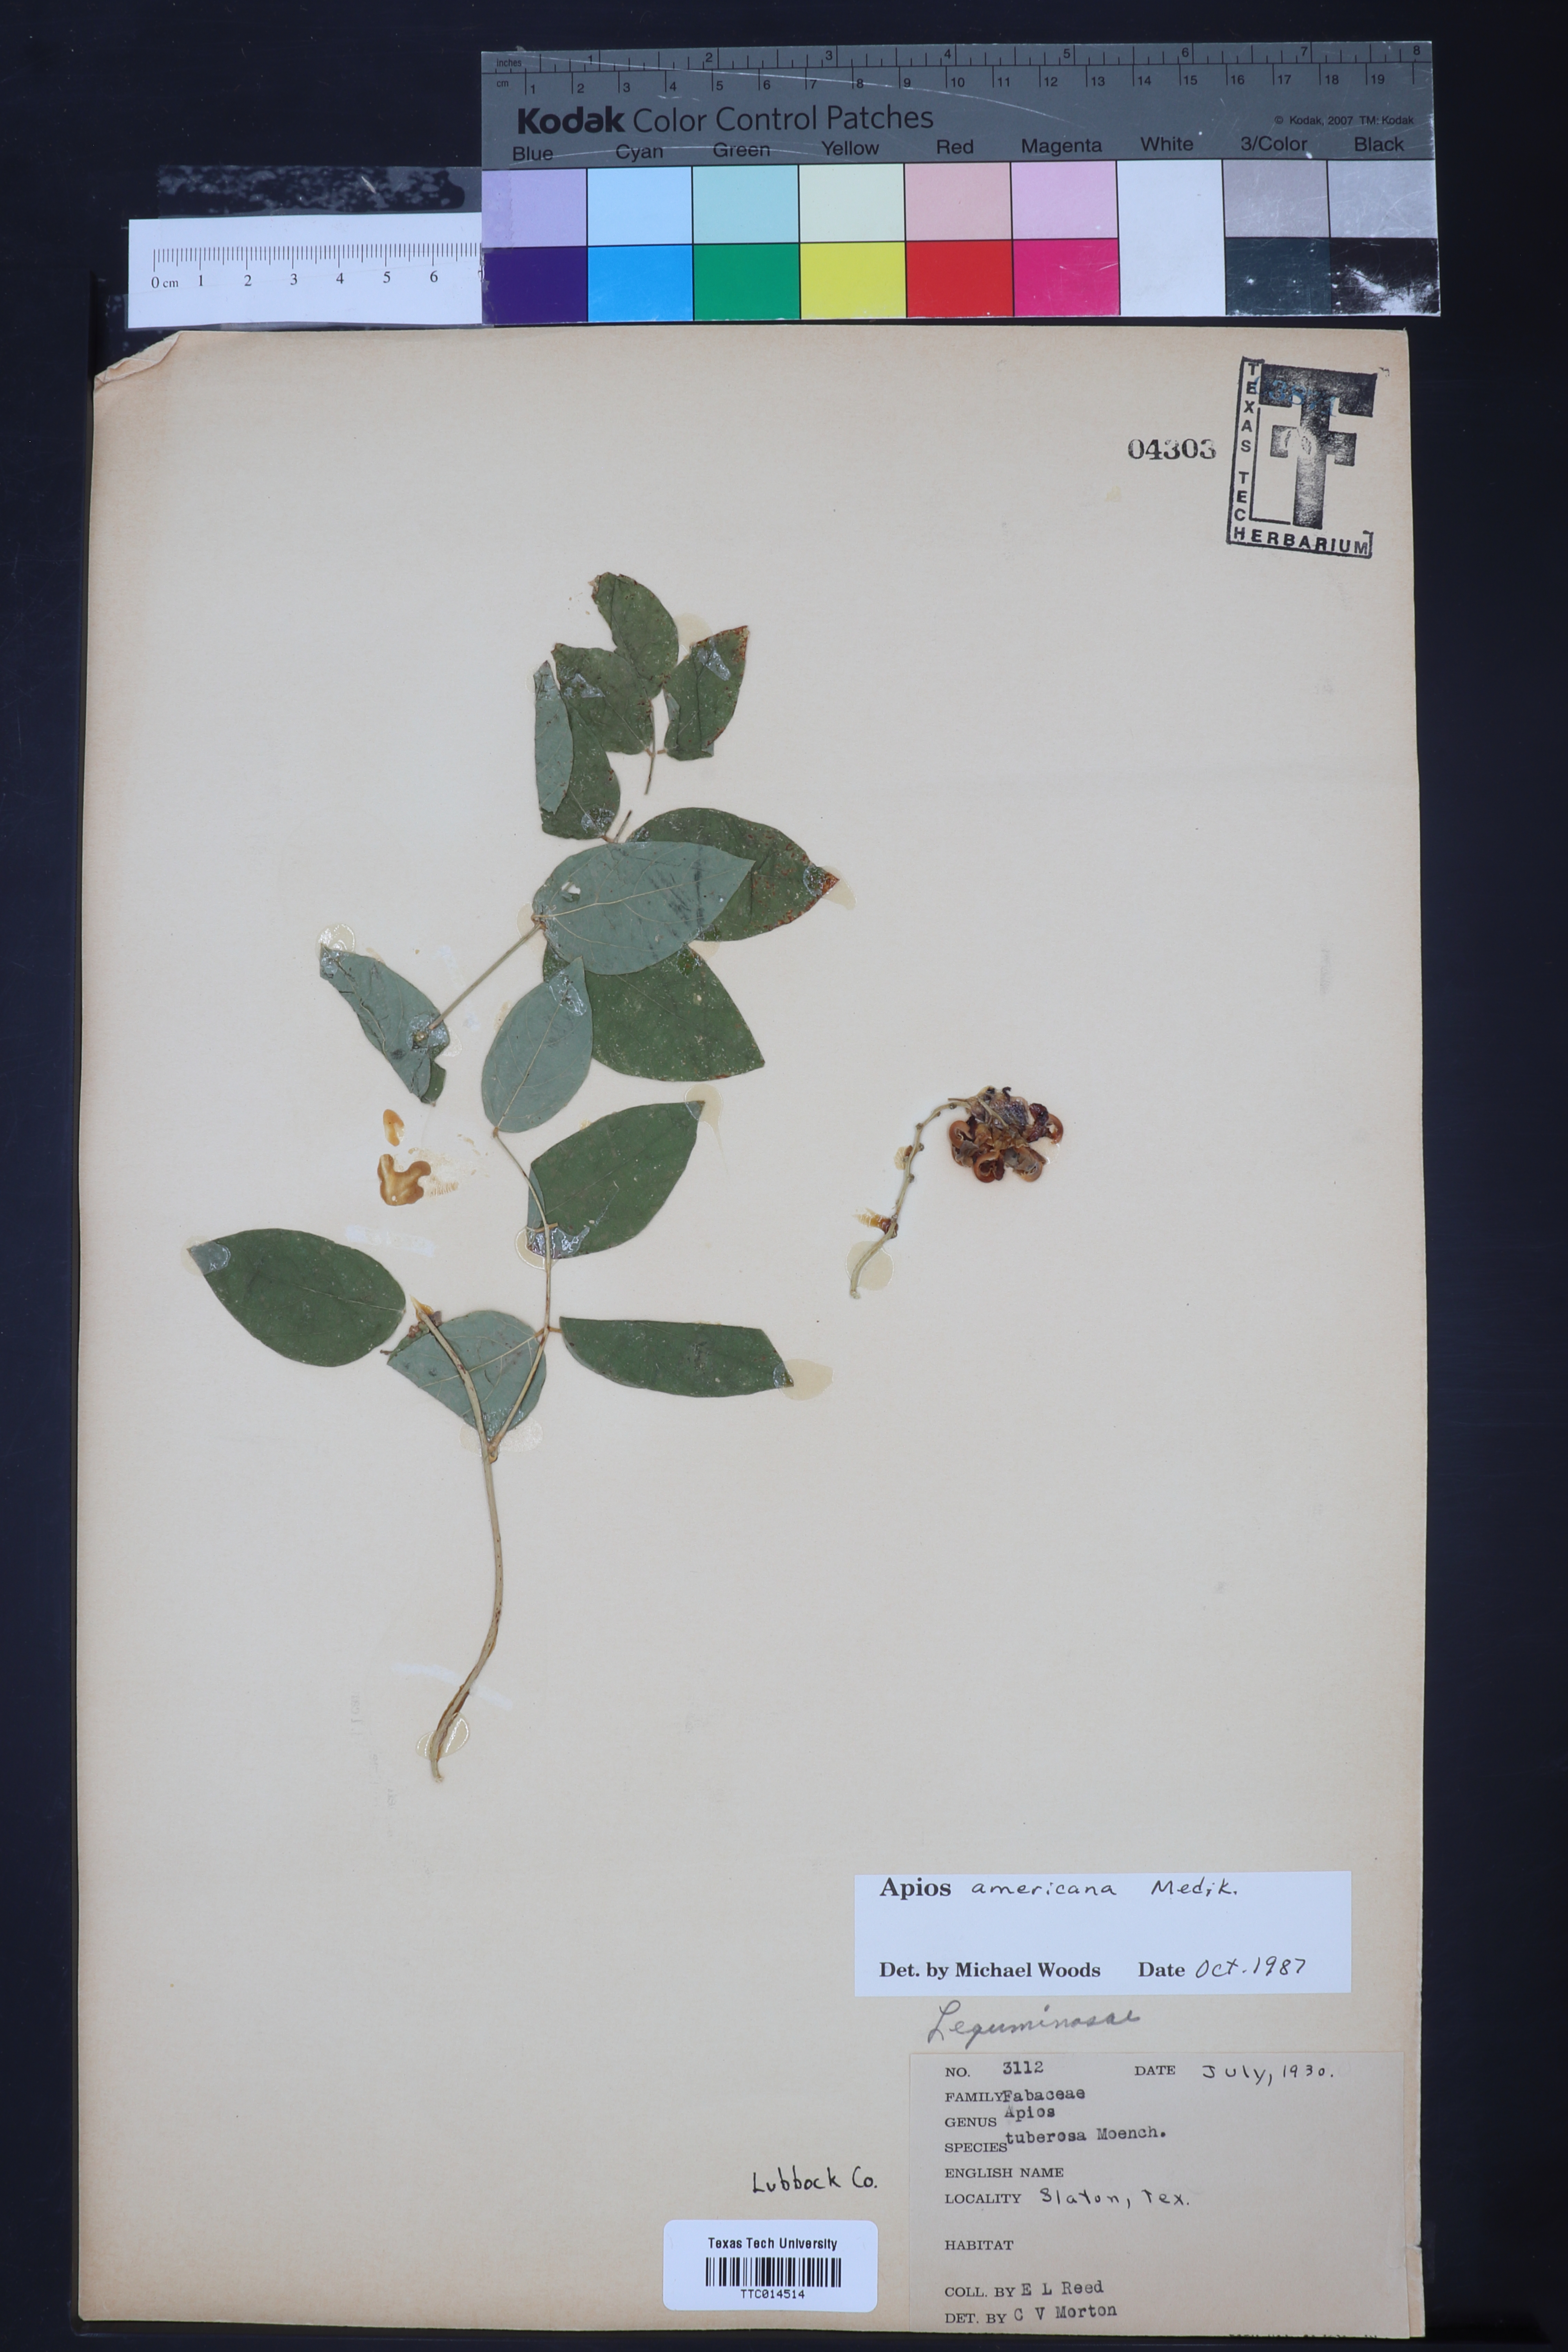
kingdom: Plantae
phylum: Tracheophyta
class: Magnoliopsida
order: Fabales
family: Fabaceae
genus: Apios
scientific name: Apios americana
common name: American potato-bean
